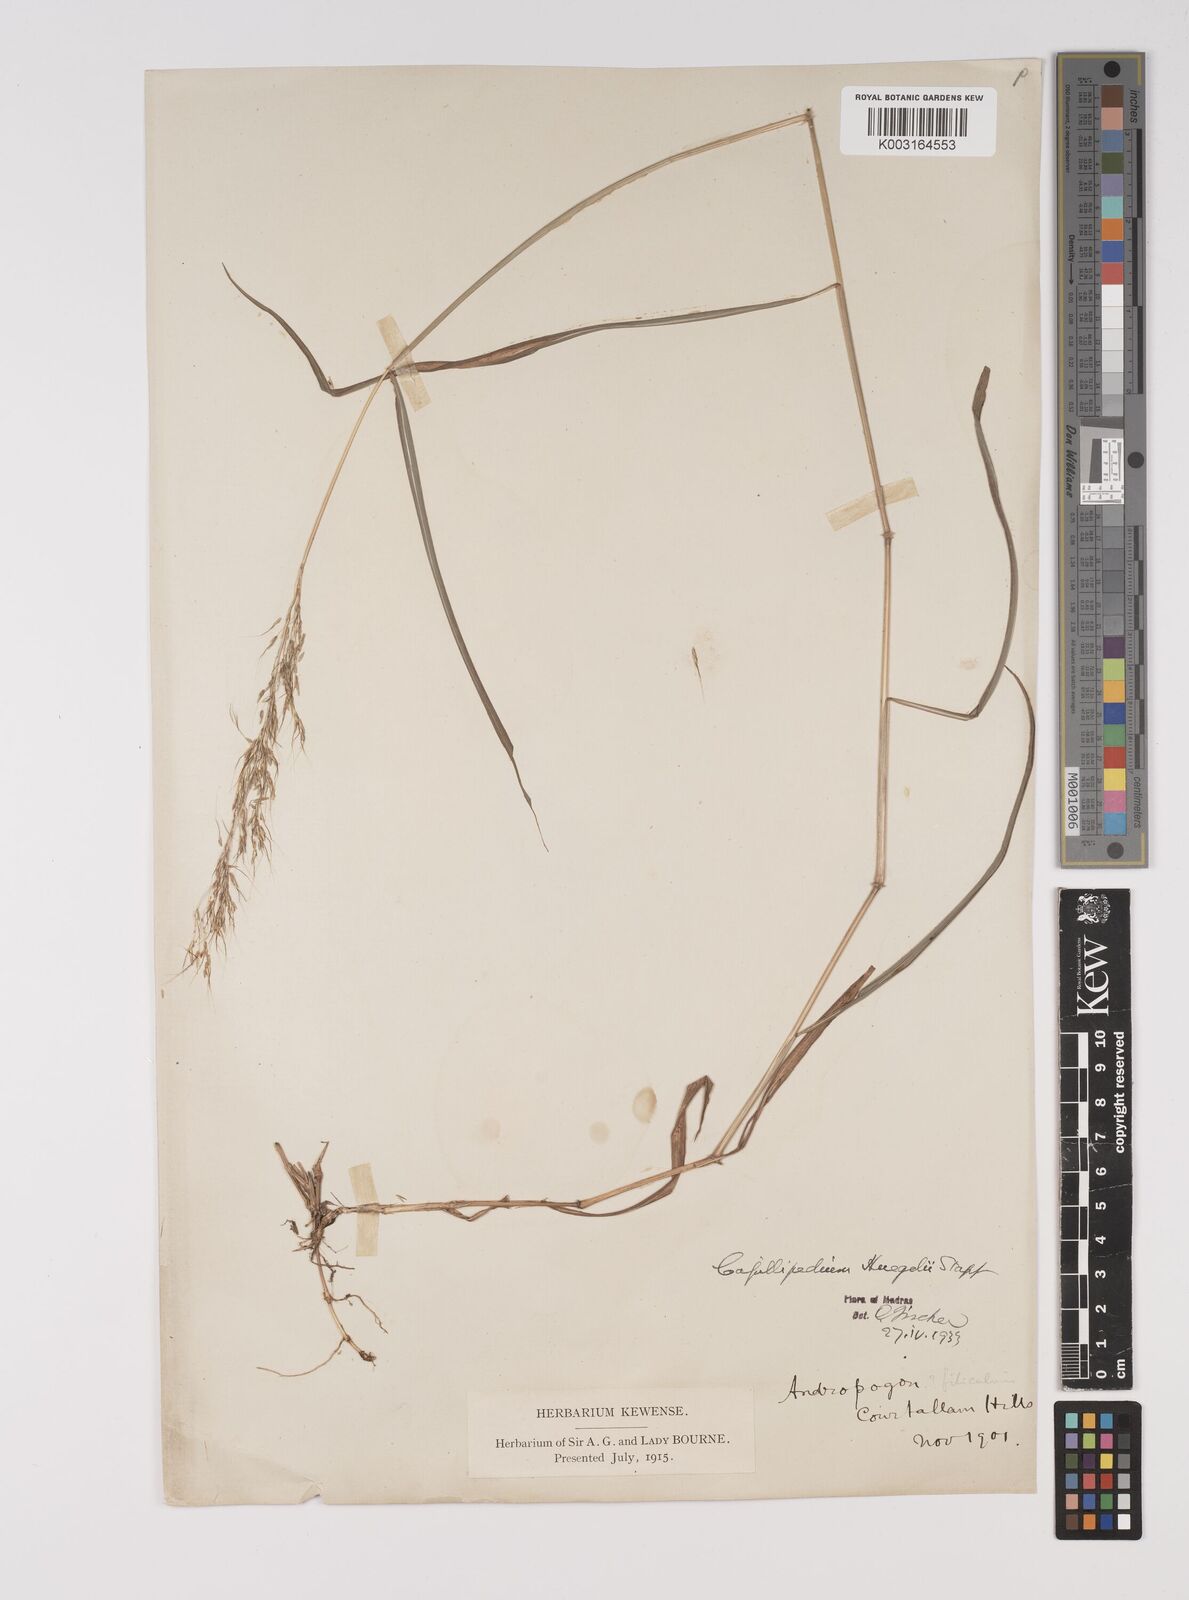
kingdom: Plantae
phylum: Tracheophyta
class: Liliopsida
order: Poales
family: Poaceae
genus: Capillipedium
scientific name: Capillipedium huegelii
